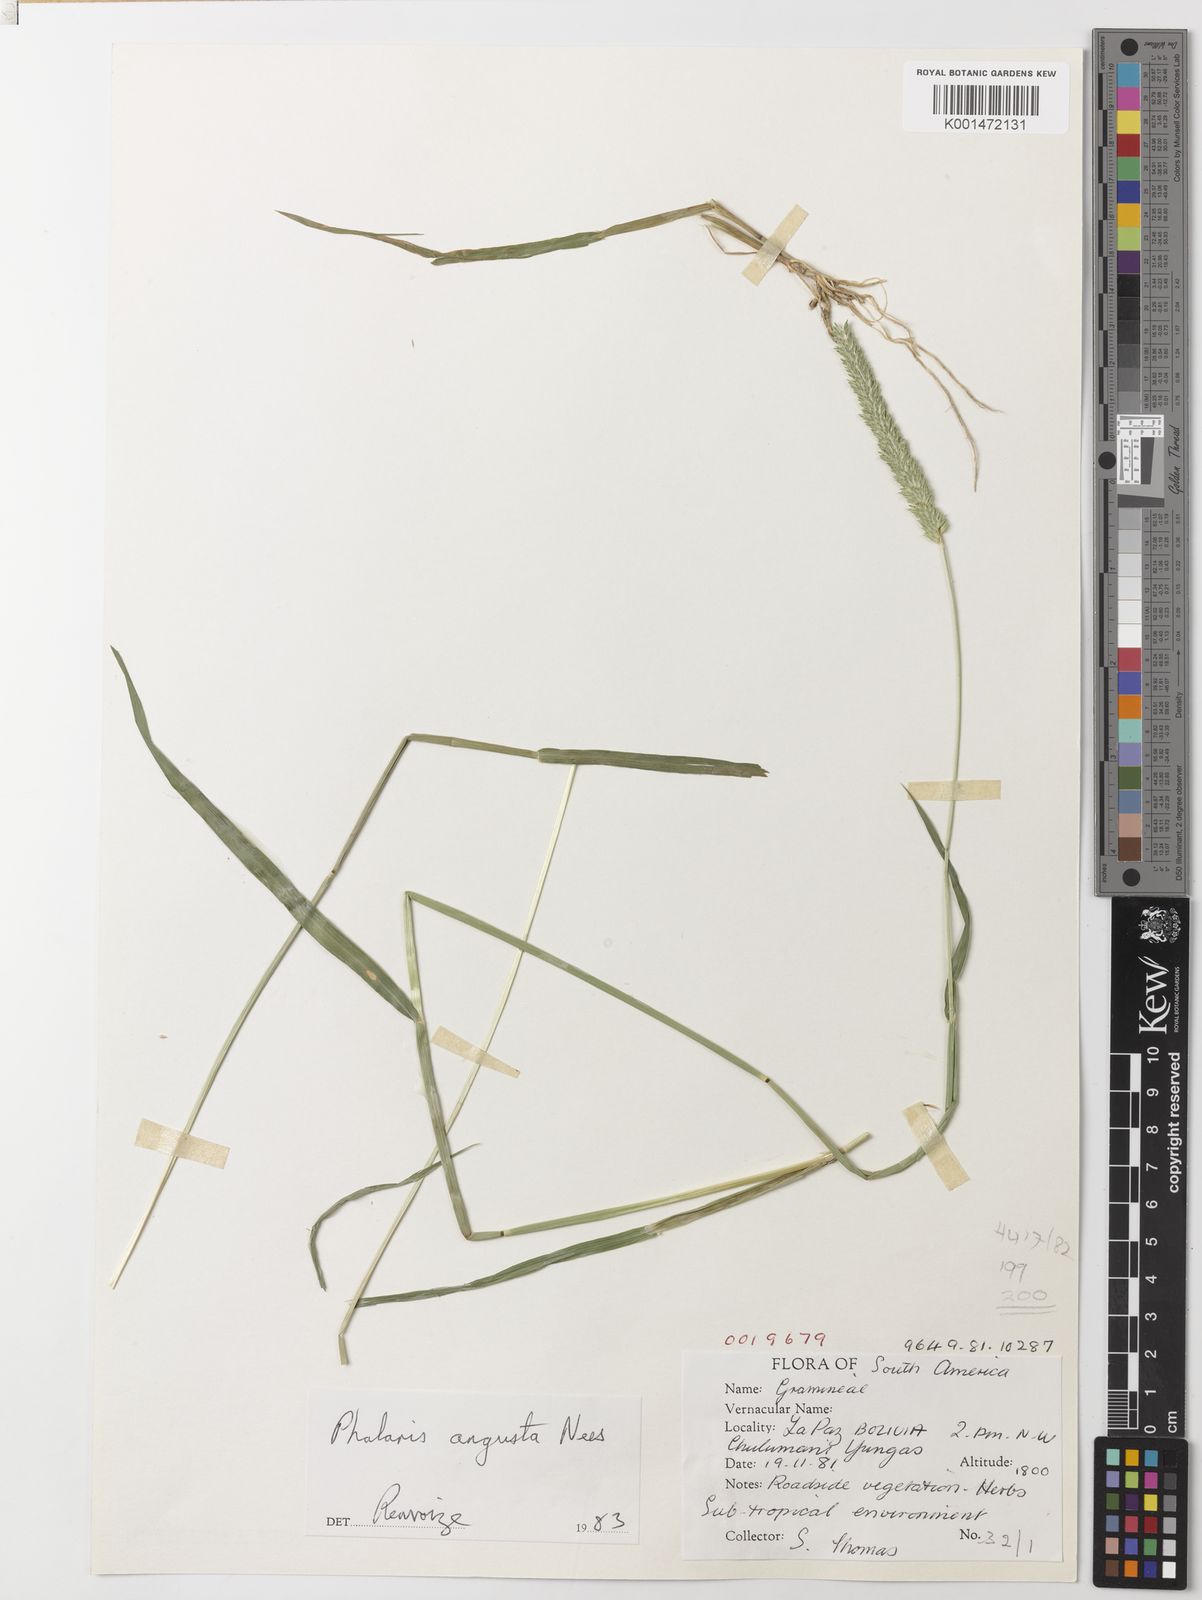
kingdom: Plantae
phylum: Tracheophyta
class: Liliopsida
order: Poales
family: Poaceae
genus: Phalaris
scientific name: Phalaris
